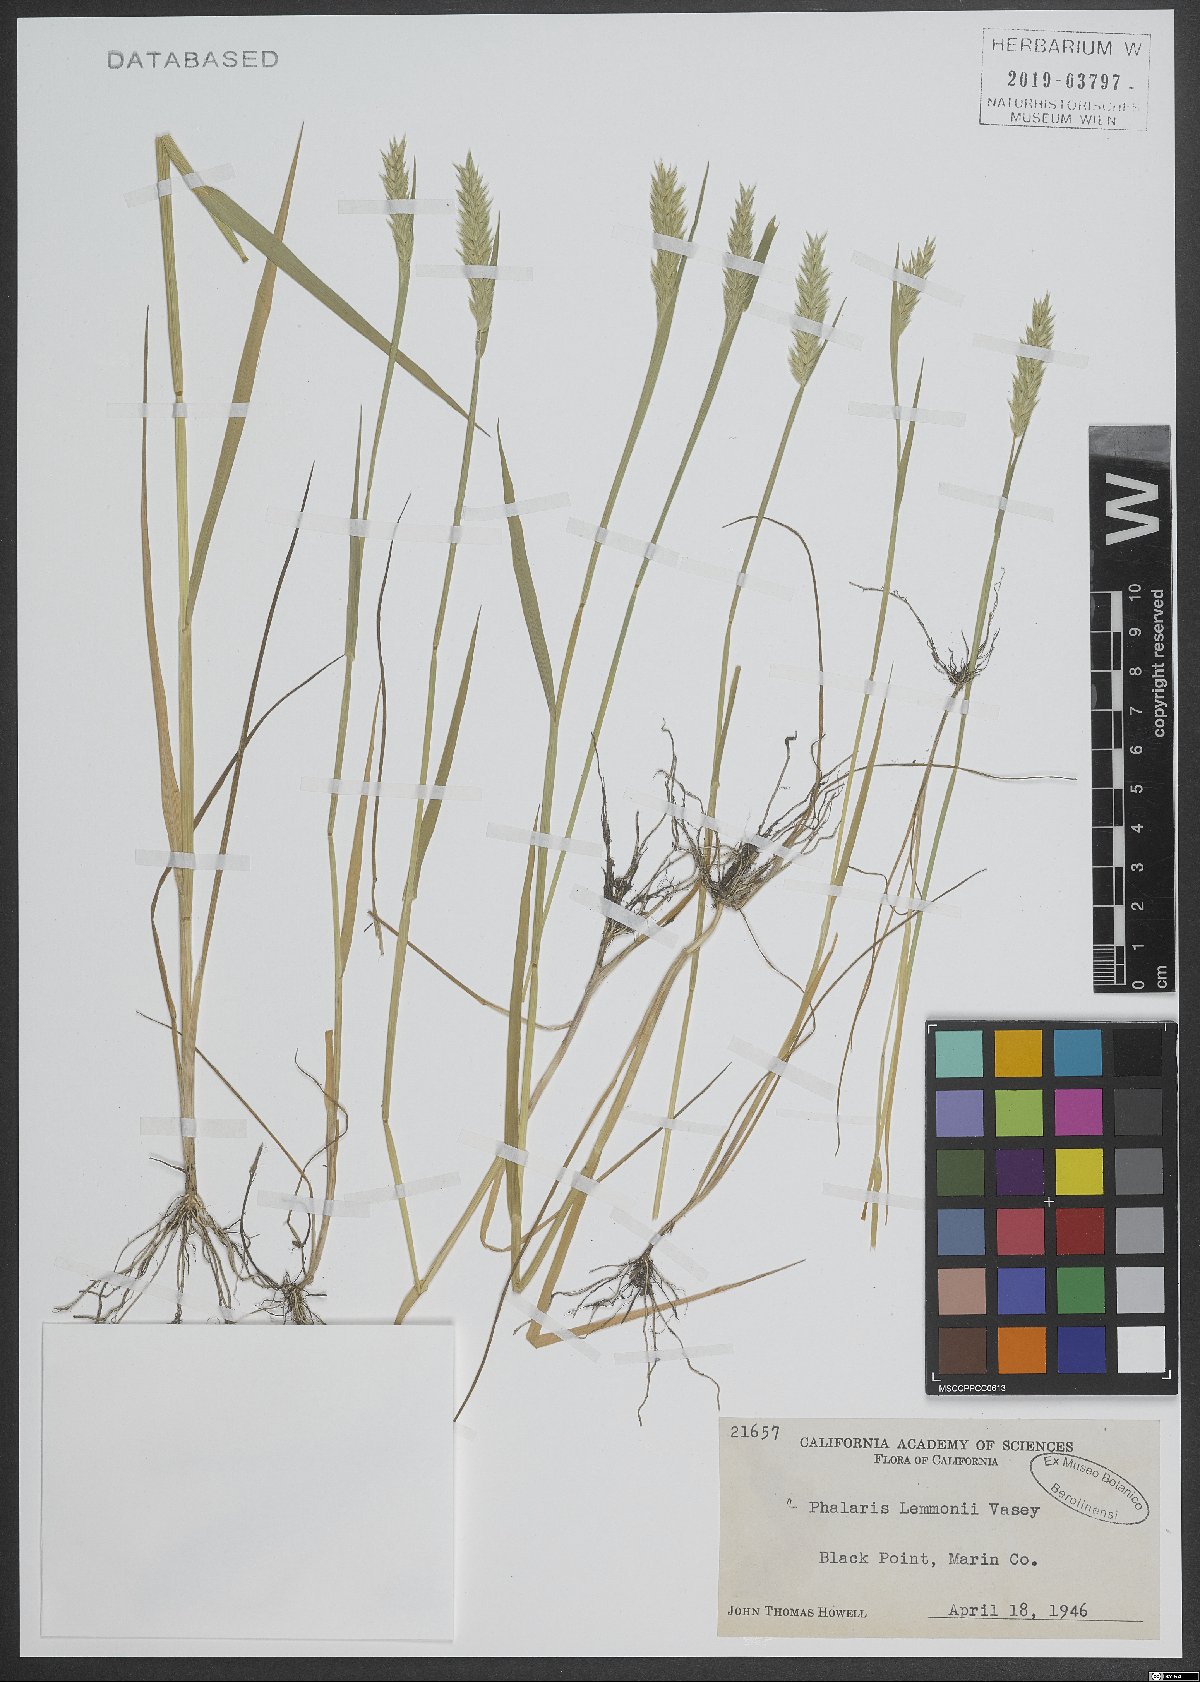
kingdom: Plantae
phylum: Tracheophyta
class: Liliopsida
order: Poales
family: Poaceae
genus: Phalaris
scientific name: Phalaris lemmonii
